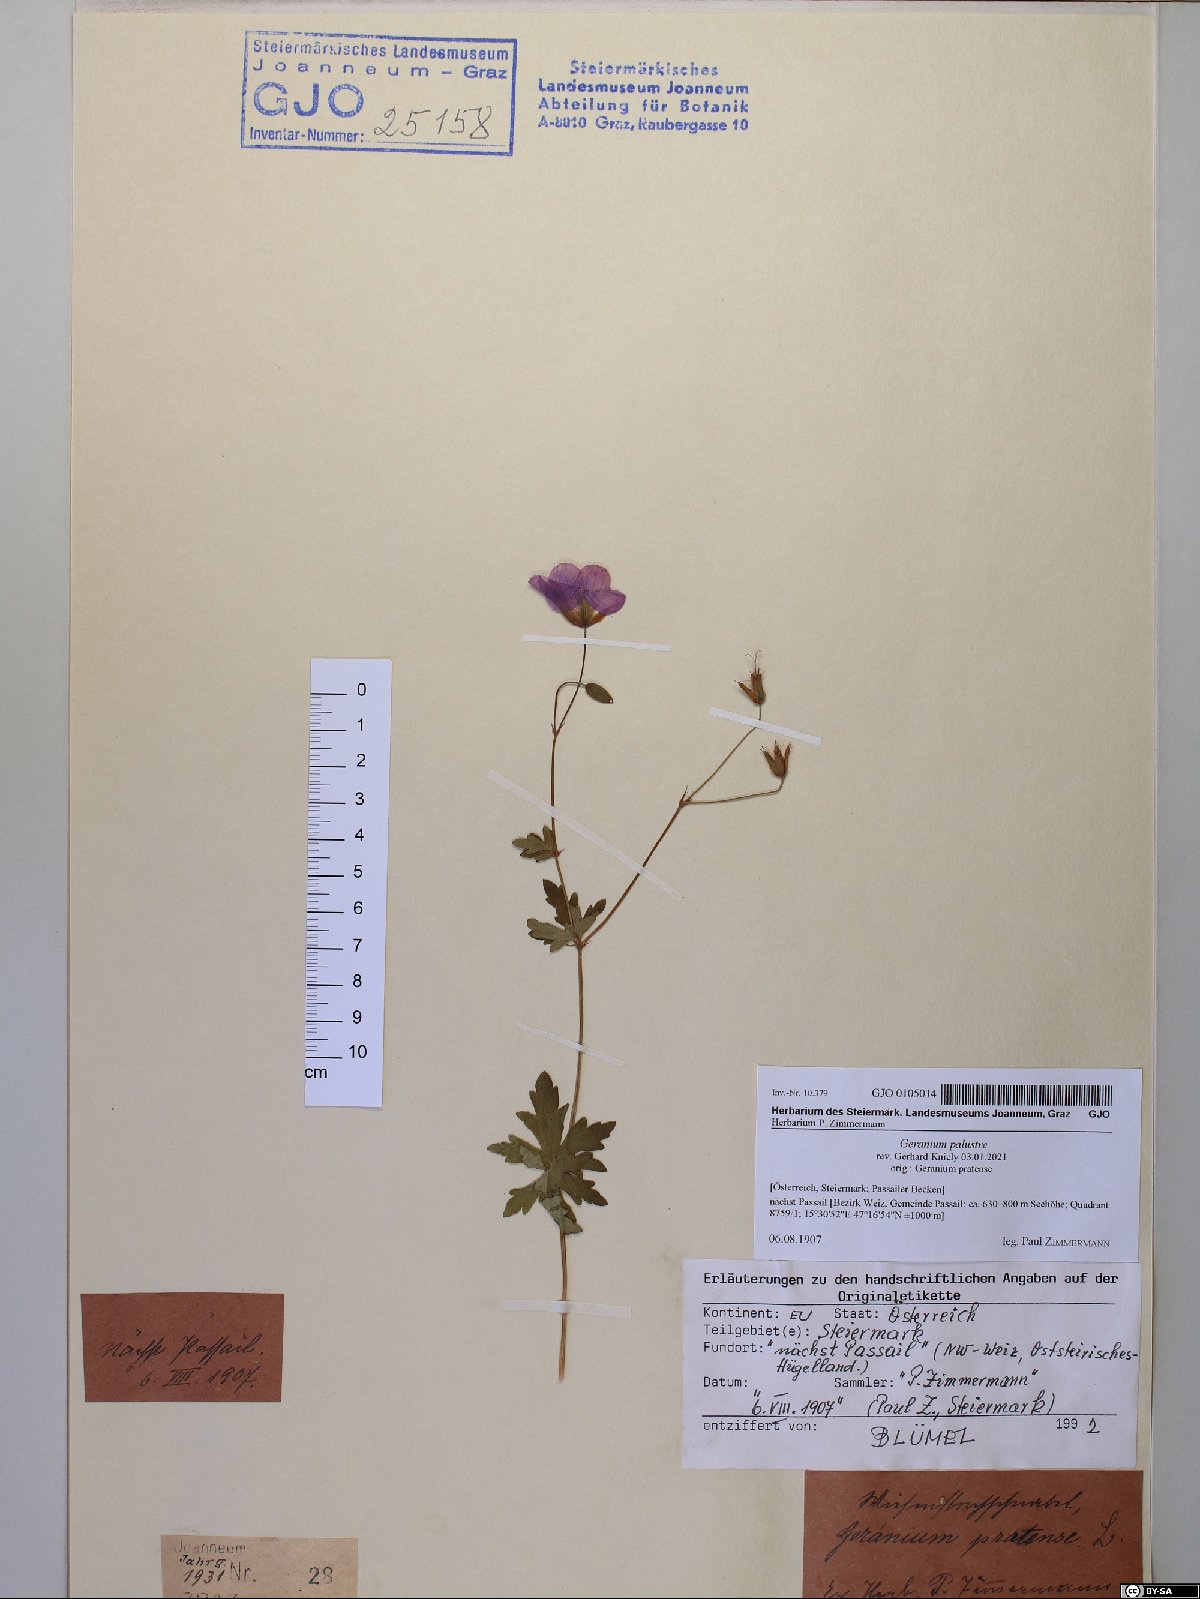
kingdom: Plantae
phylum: Tracheophyta
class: Magnoliopsida
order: Geraniales
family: Geraniaceae
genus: Geranium
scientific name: Geranium palustre
